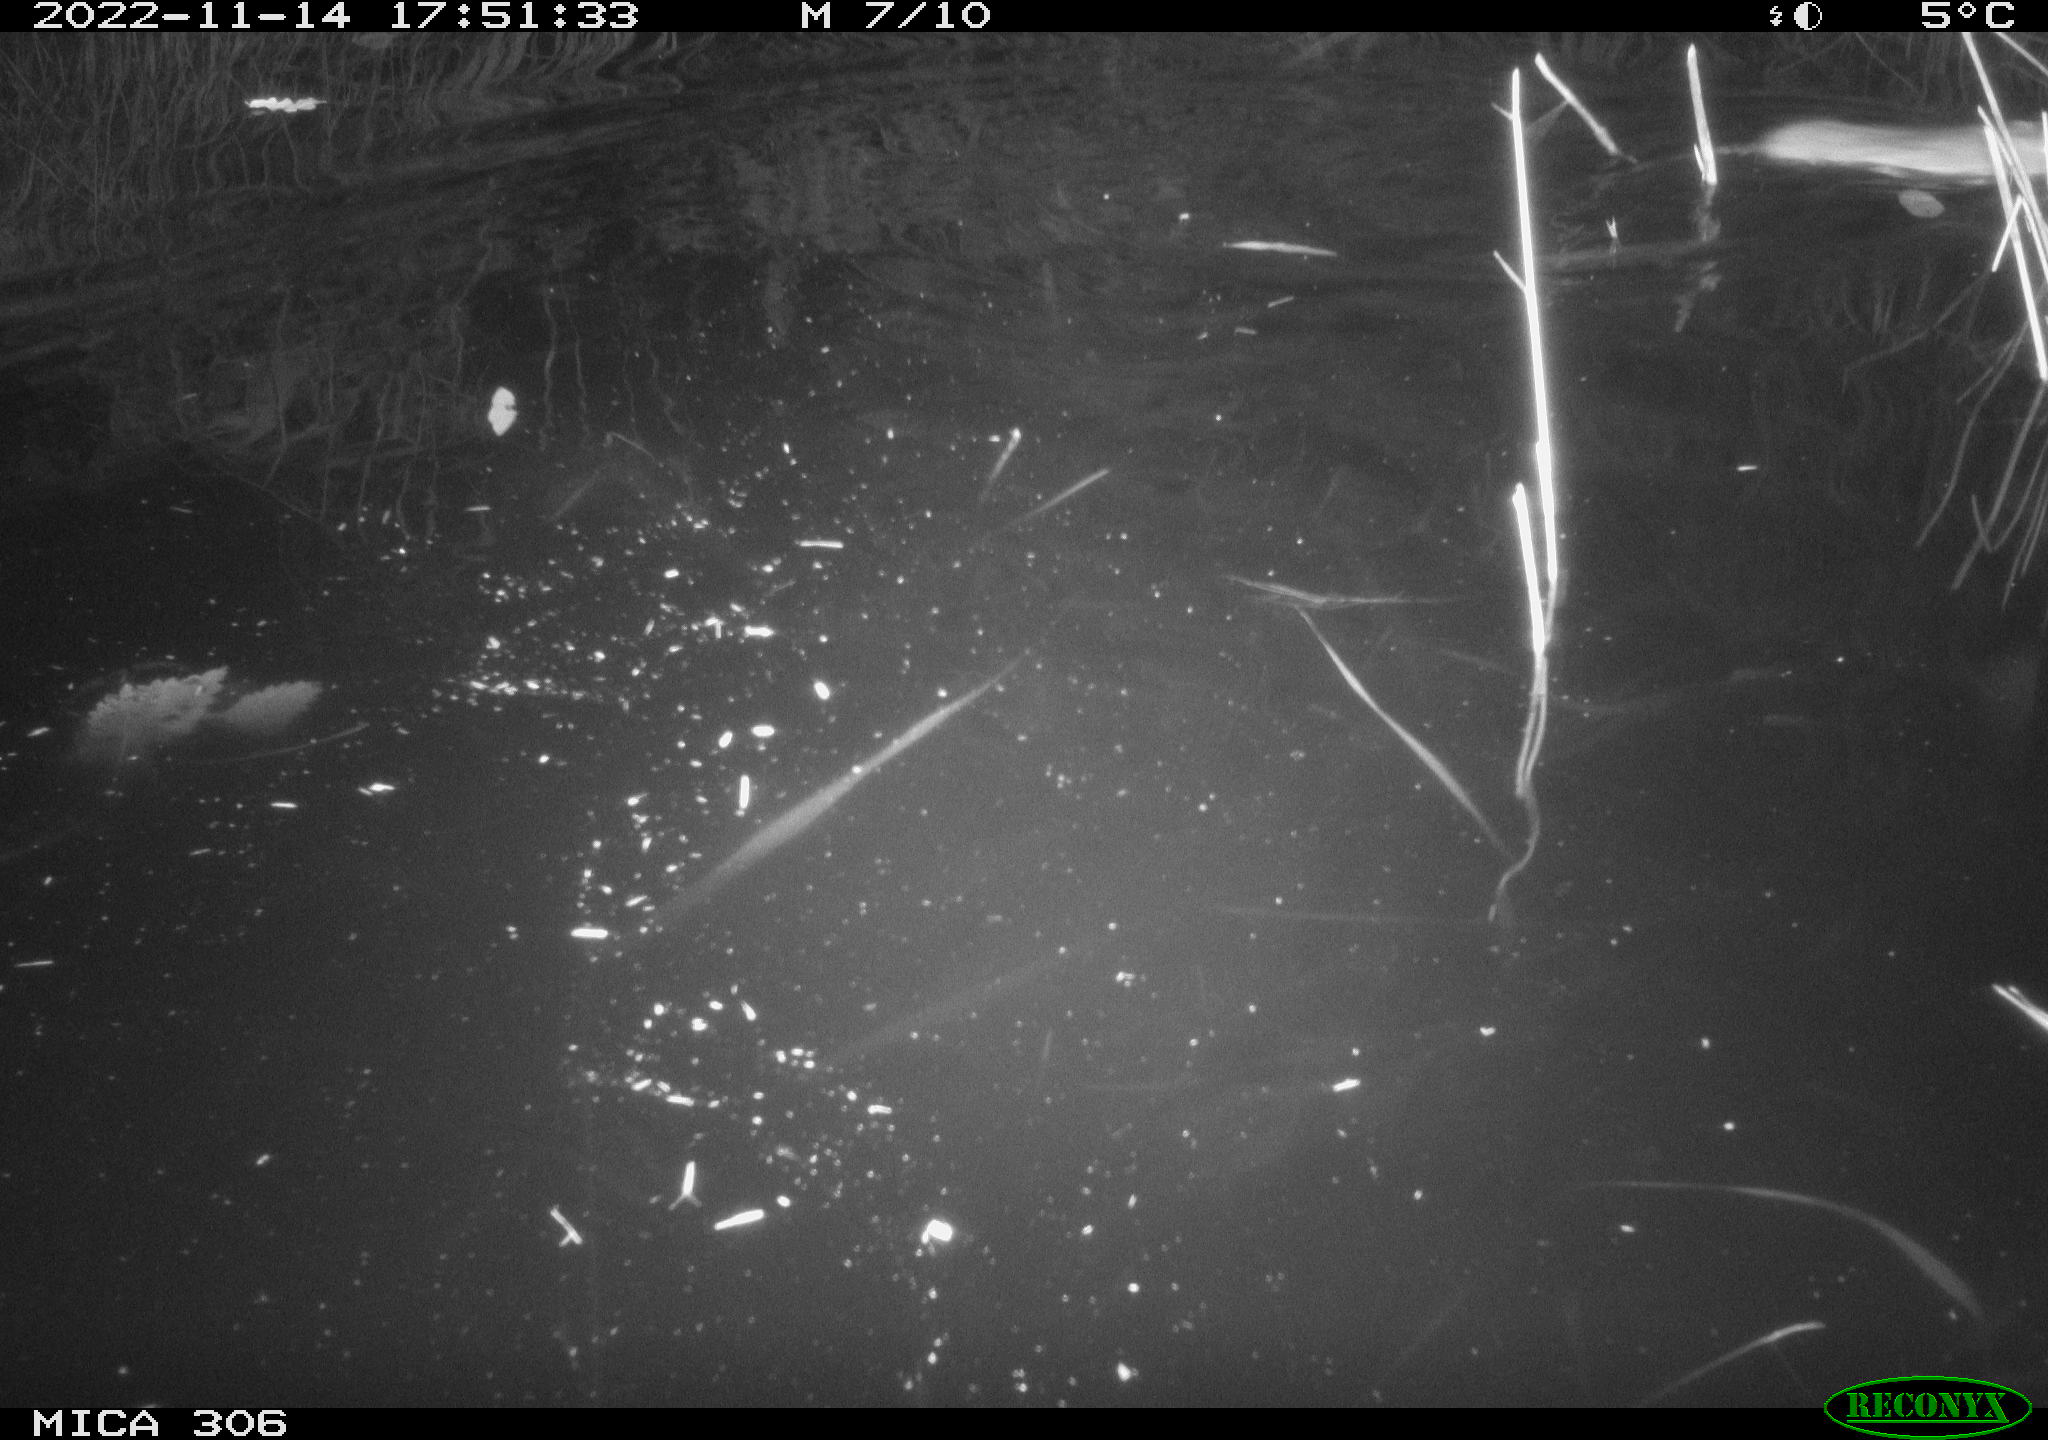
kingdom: Animalia
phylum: Chordata
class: Mammalia
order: Rodentia
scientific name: Rodentia
